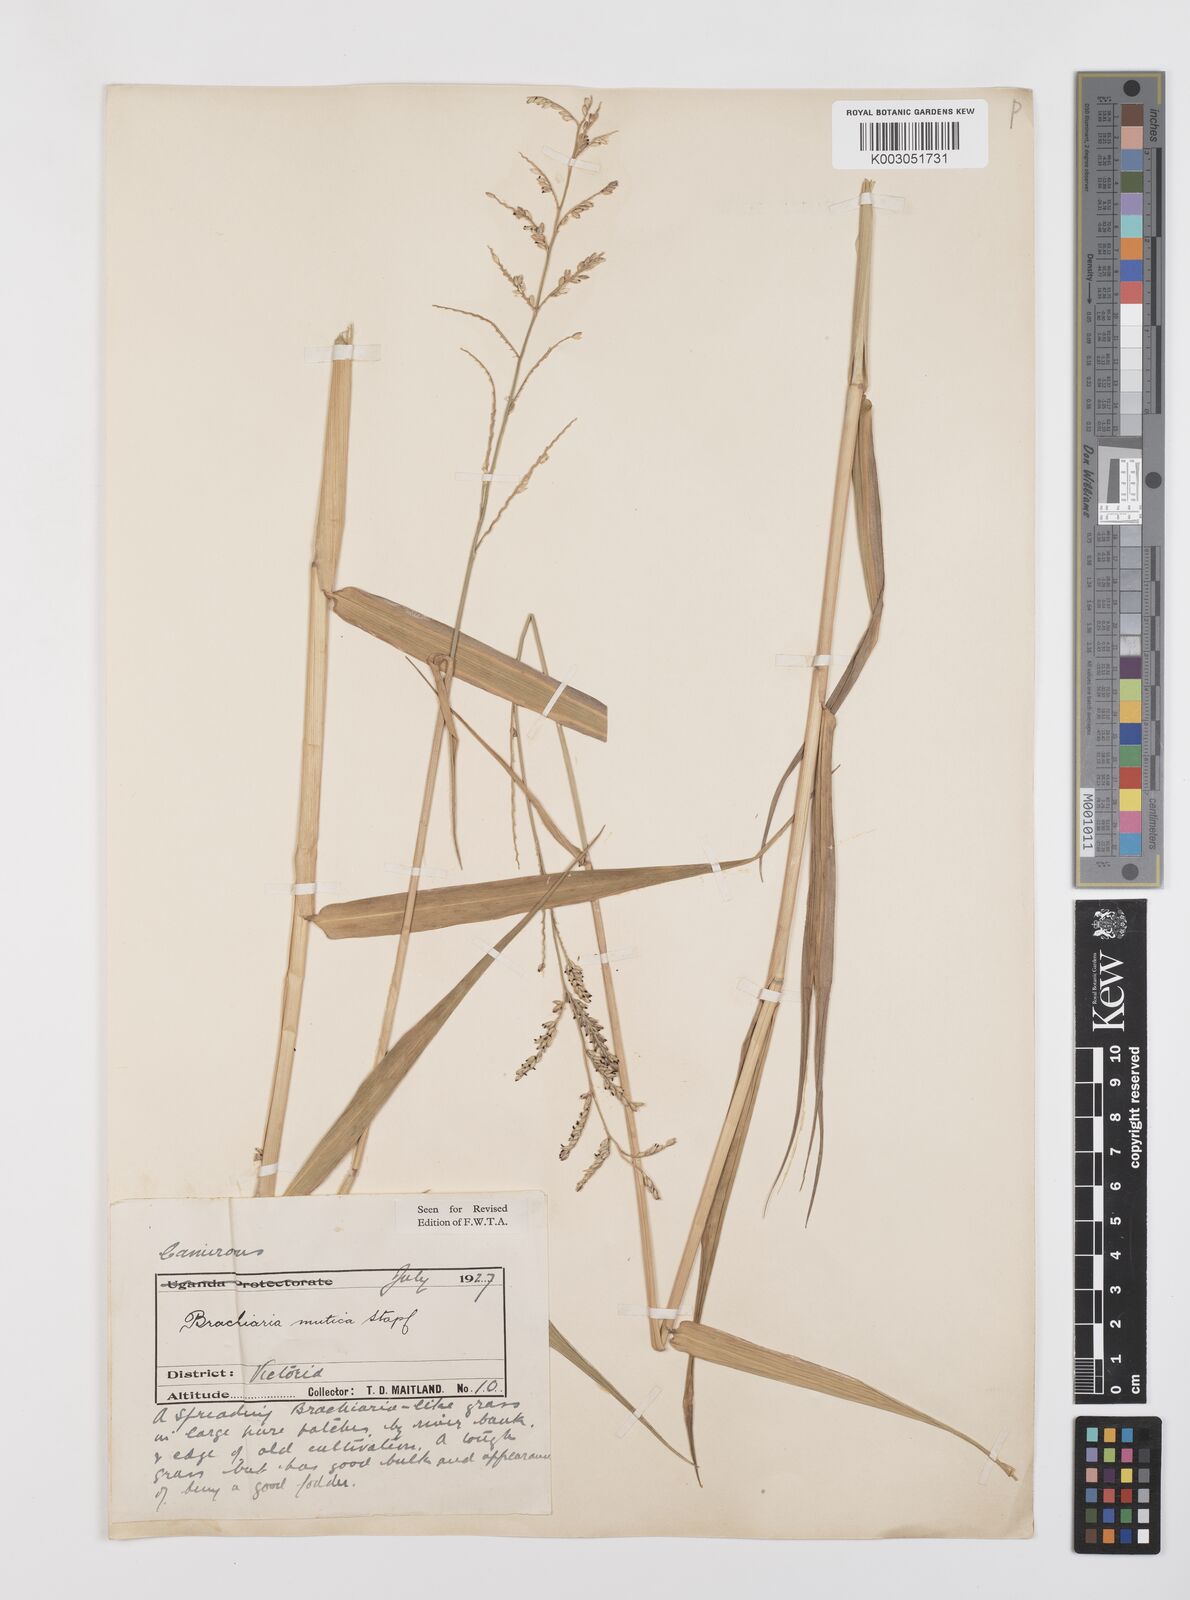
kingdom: Plantae
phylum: Tracheophyta
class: Liliopsida
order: Poales
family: Poaceae
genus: Urochloa
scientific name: Urochloa mutica
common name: Para grass
